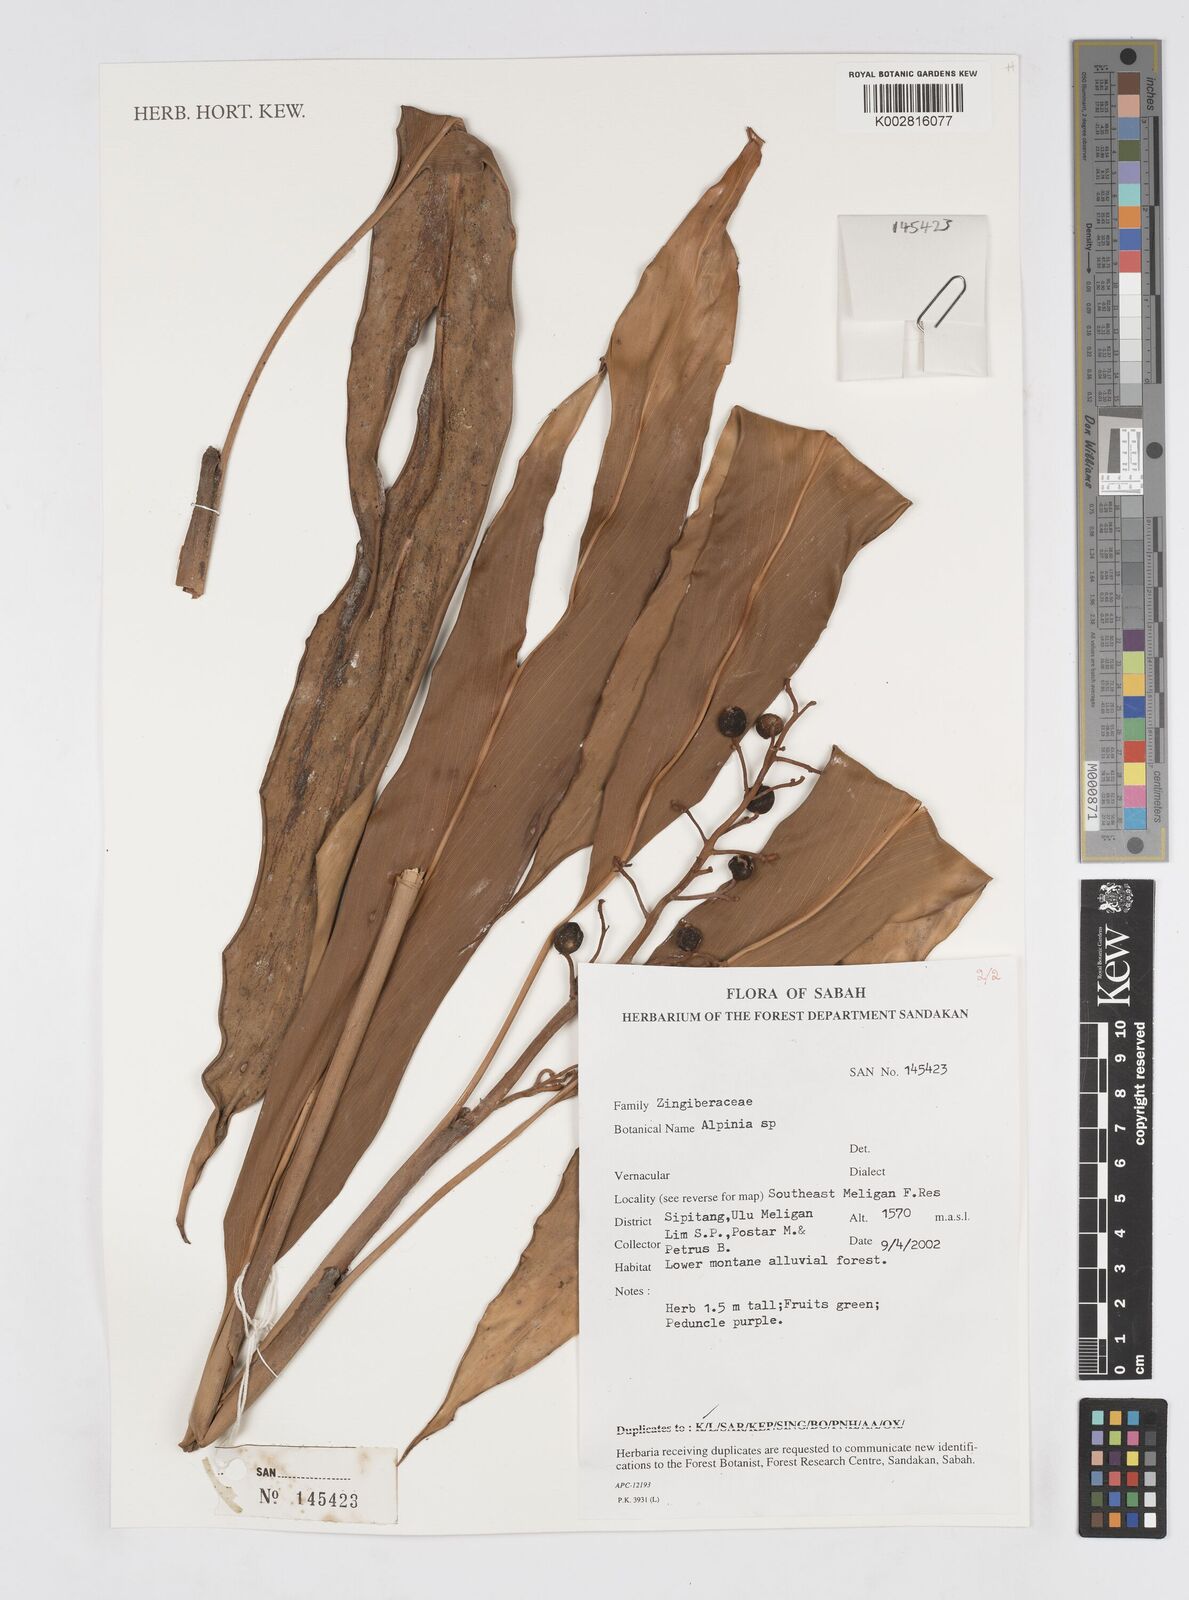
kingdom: Plantae
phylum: Tracheophyta
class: Liliopsida
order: Zingiberales
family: Zingiberaceae
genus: Alpinia
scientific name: Alpinia
